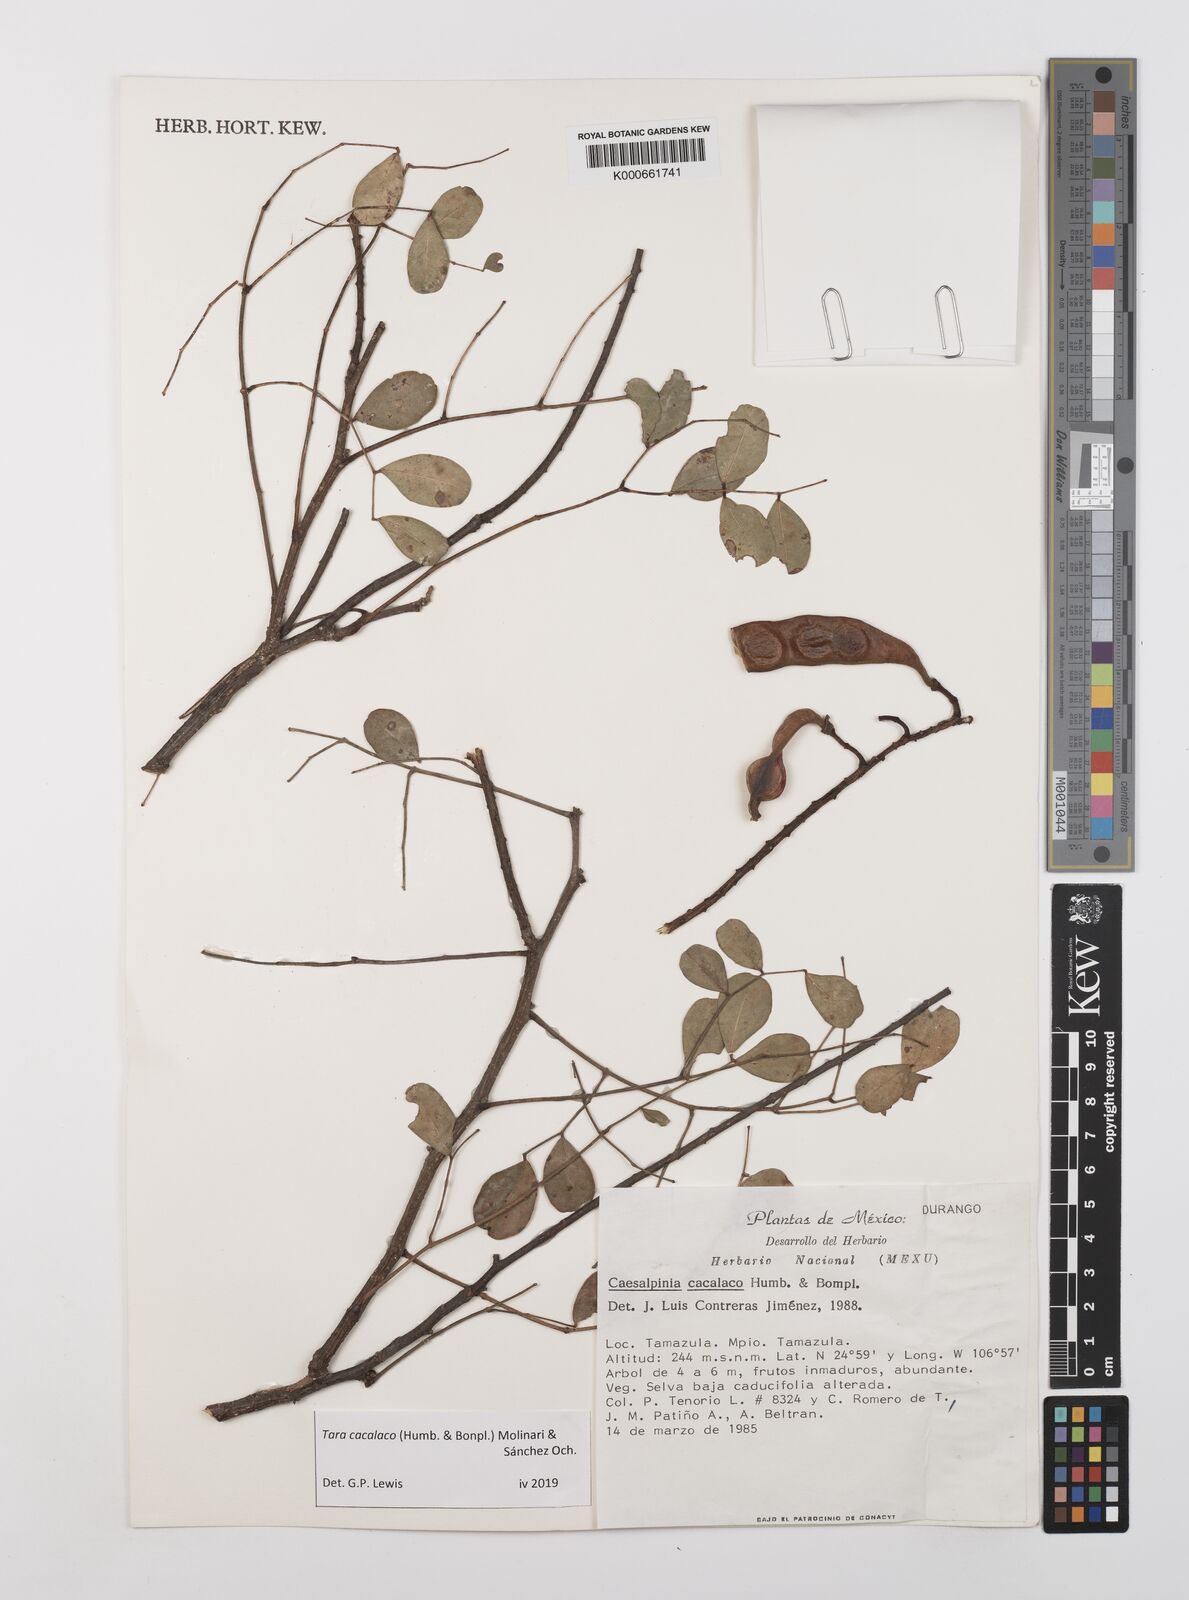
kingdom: Plantae
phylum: Tracheophyta
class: Magnoliopsida
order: Fabales
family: Fabaceae
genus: Tara
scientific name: Tara cacalaco
